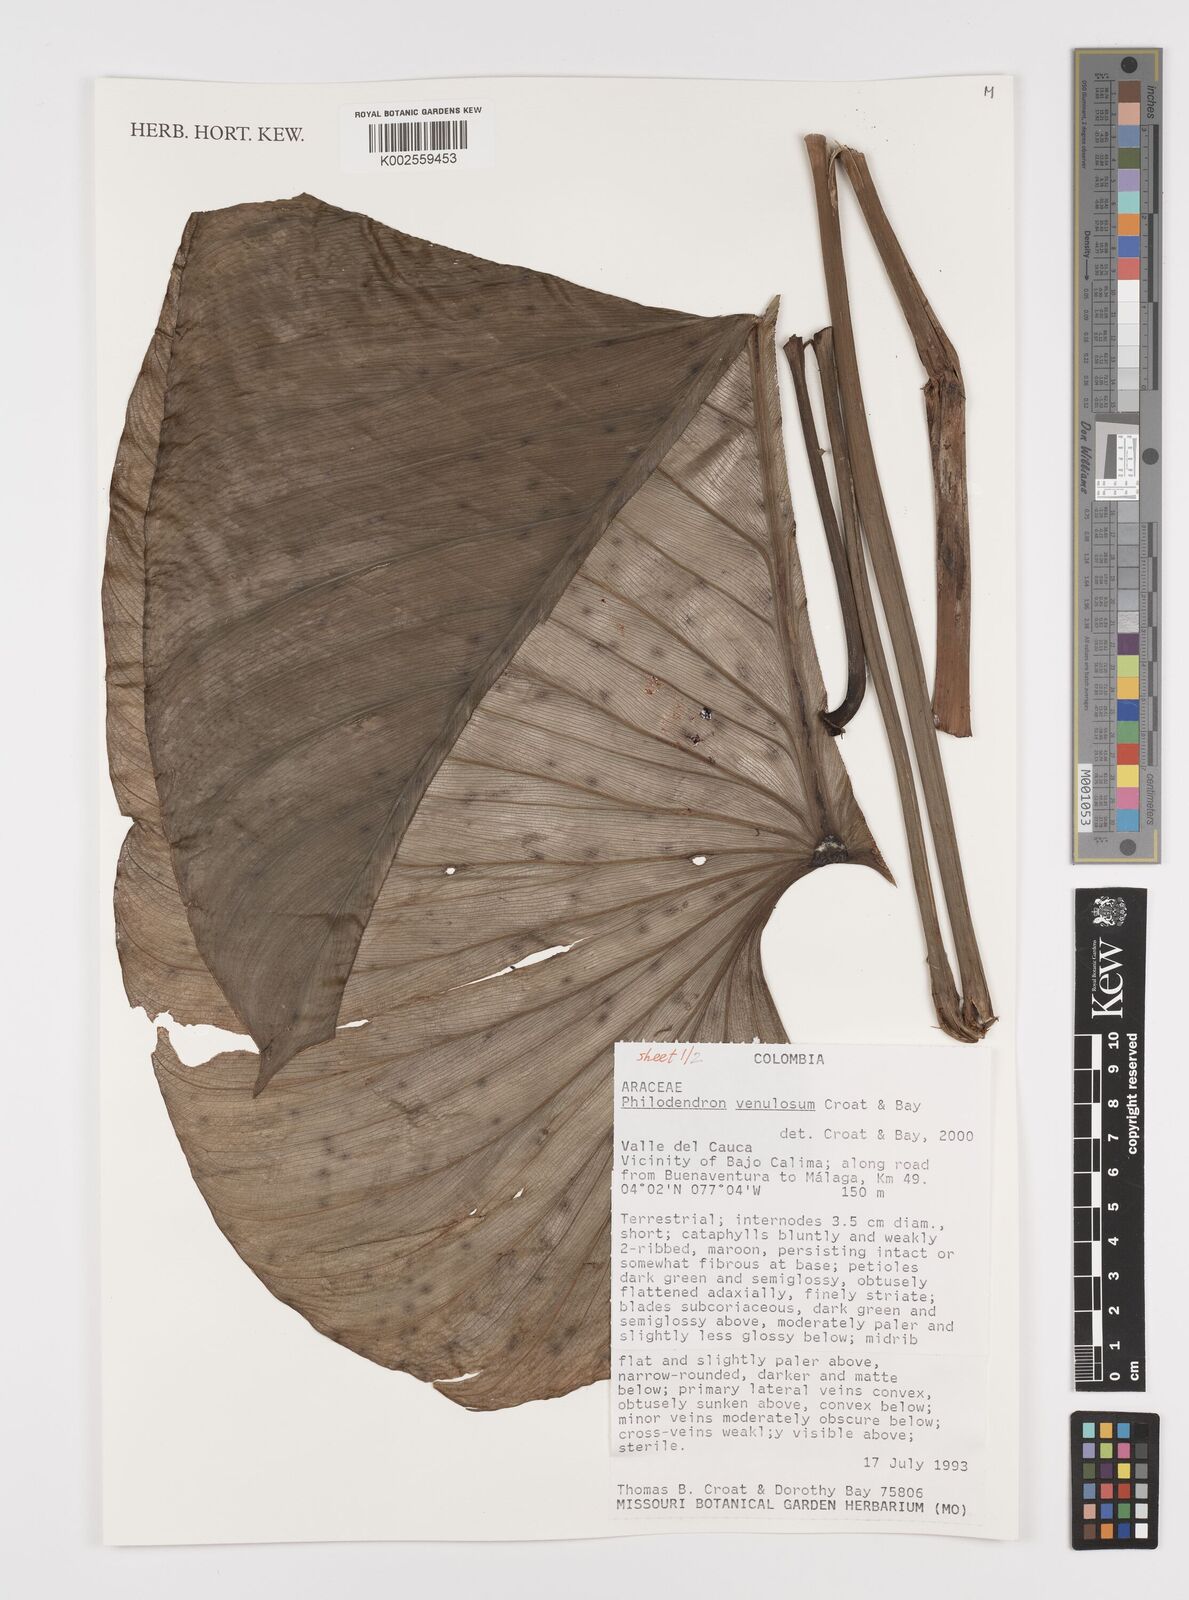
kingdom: Plantae
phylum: Tracheophyta
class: Liliopsida
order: Alismatales
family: Araceae
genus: Philodendron
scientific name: Philodendron venulosum
